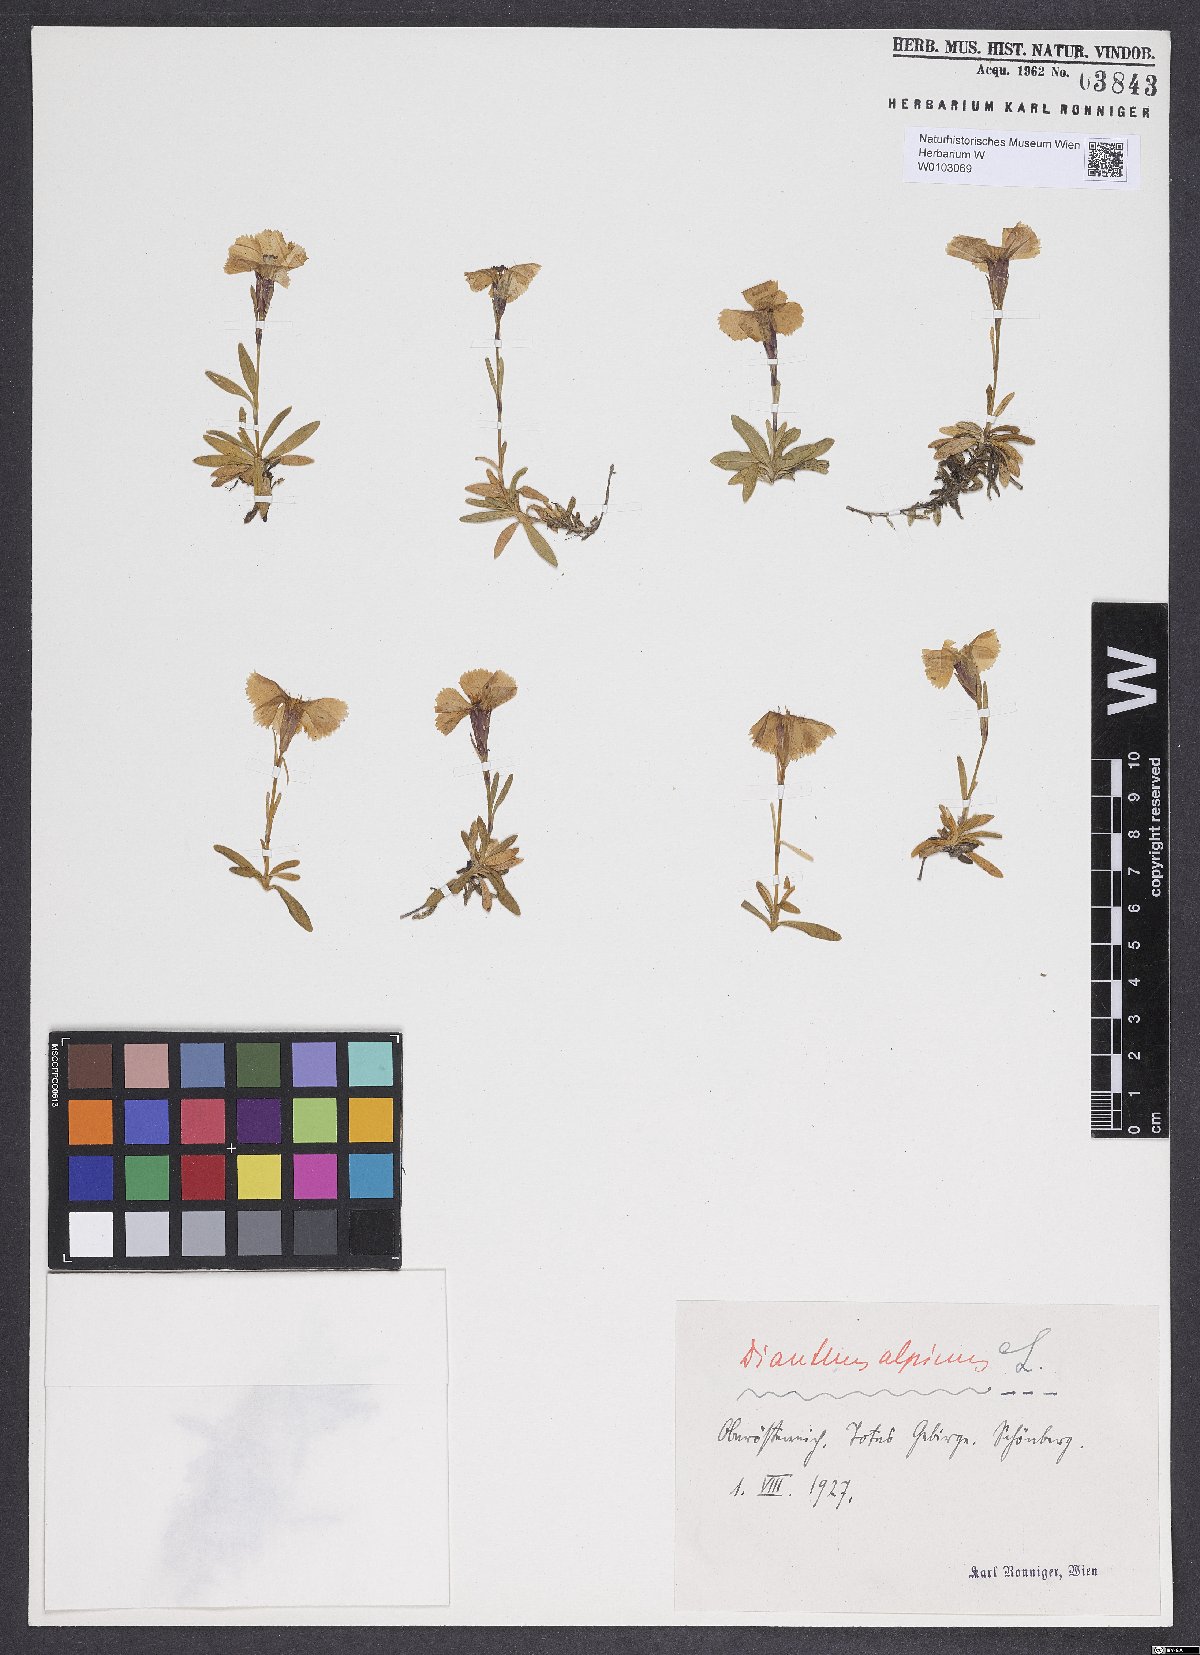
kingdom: Plantae
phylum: Tracheophyta
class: Magnoliopsida
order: Caryophyllales
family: Caryophyllaceae
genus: Dianthus
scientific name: Dianthus alpinus
